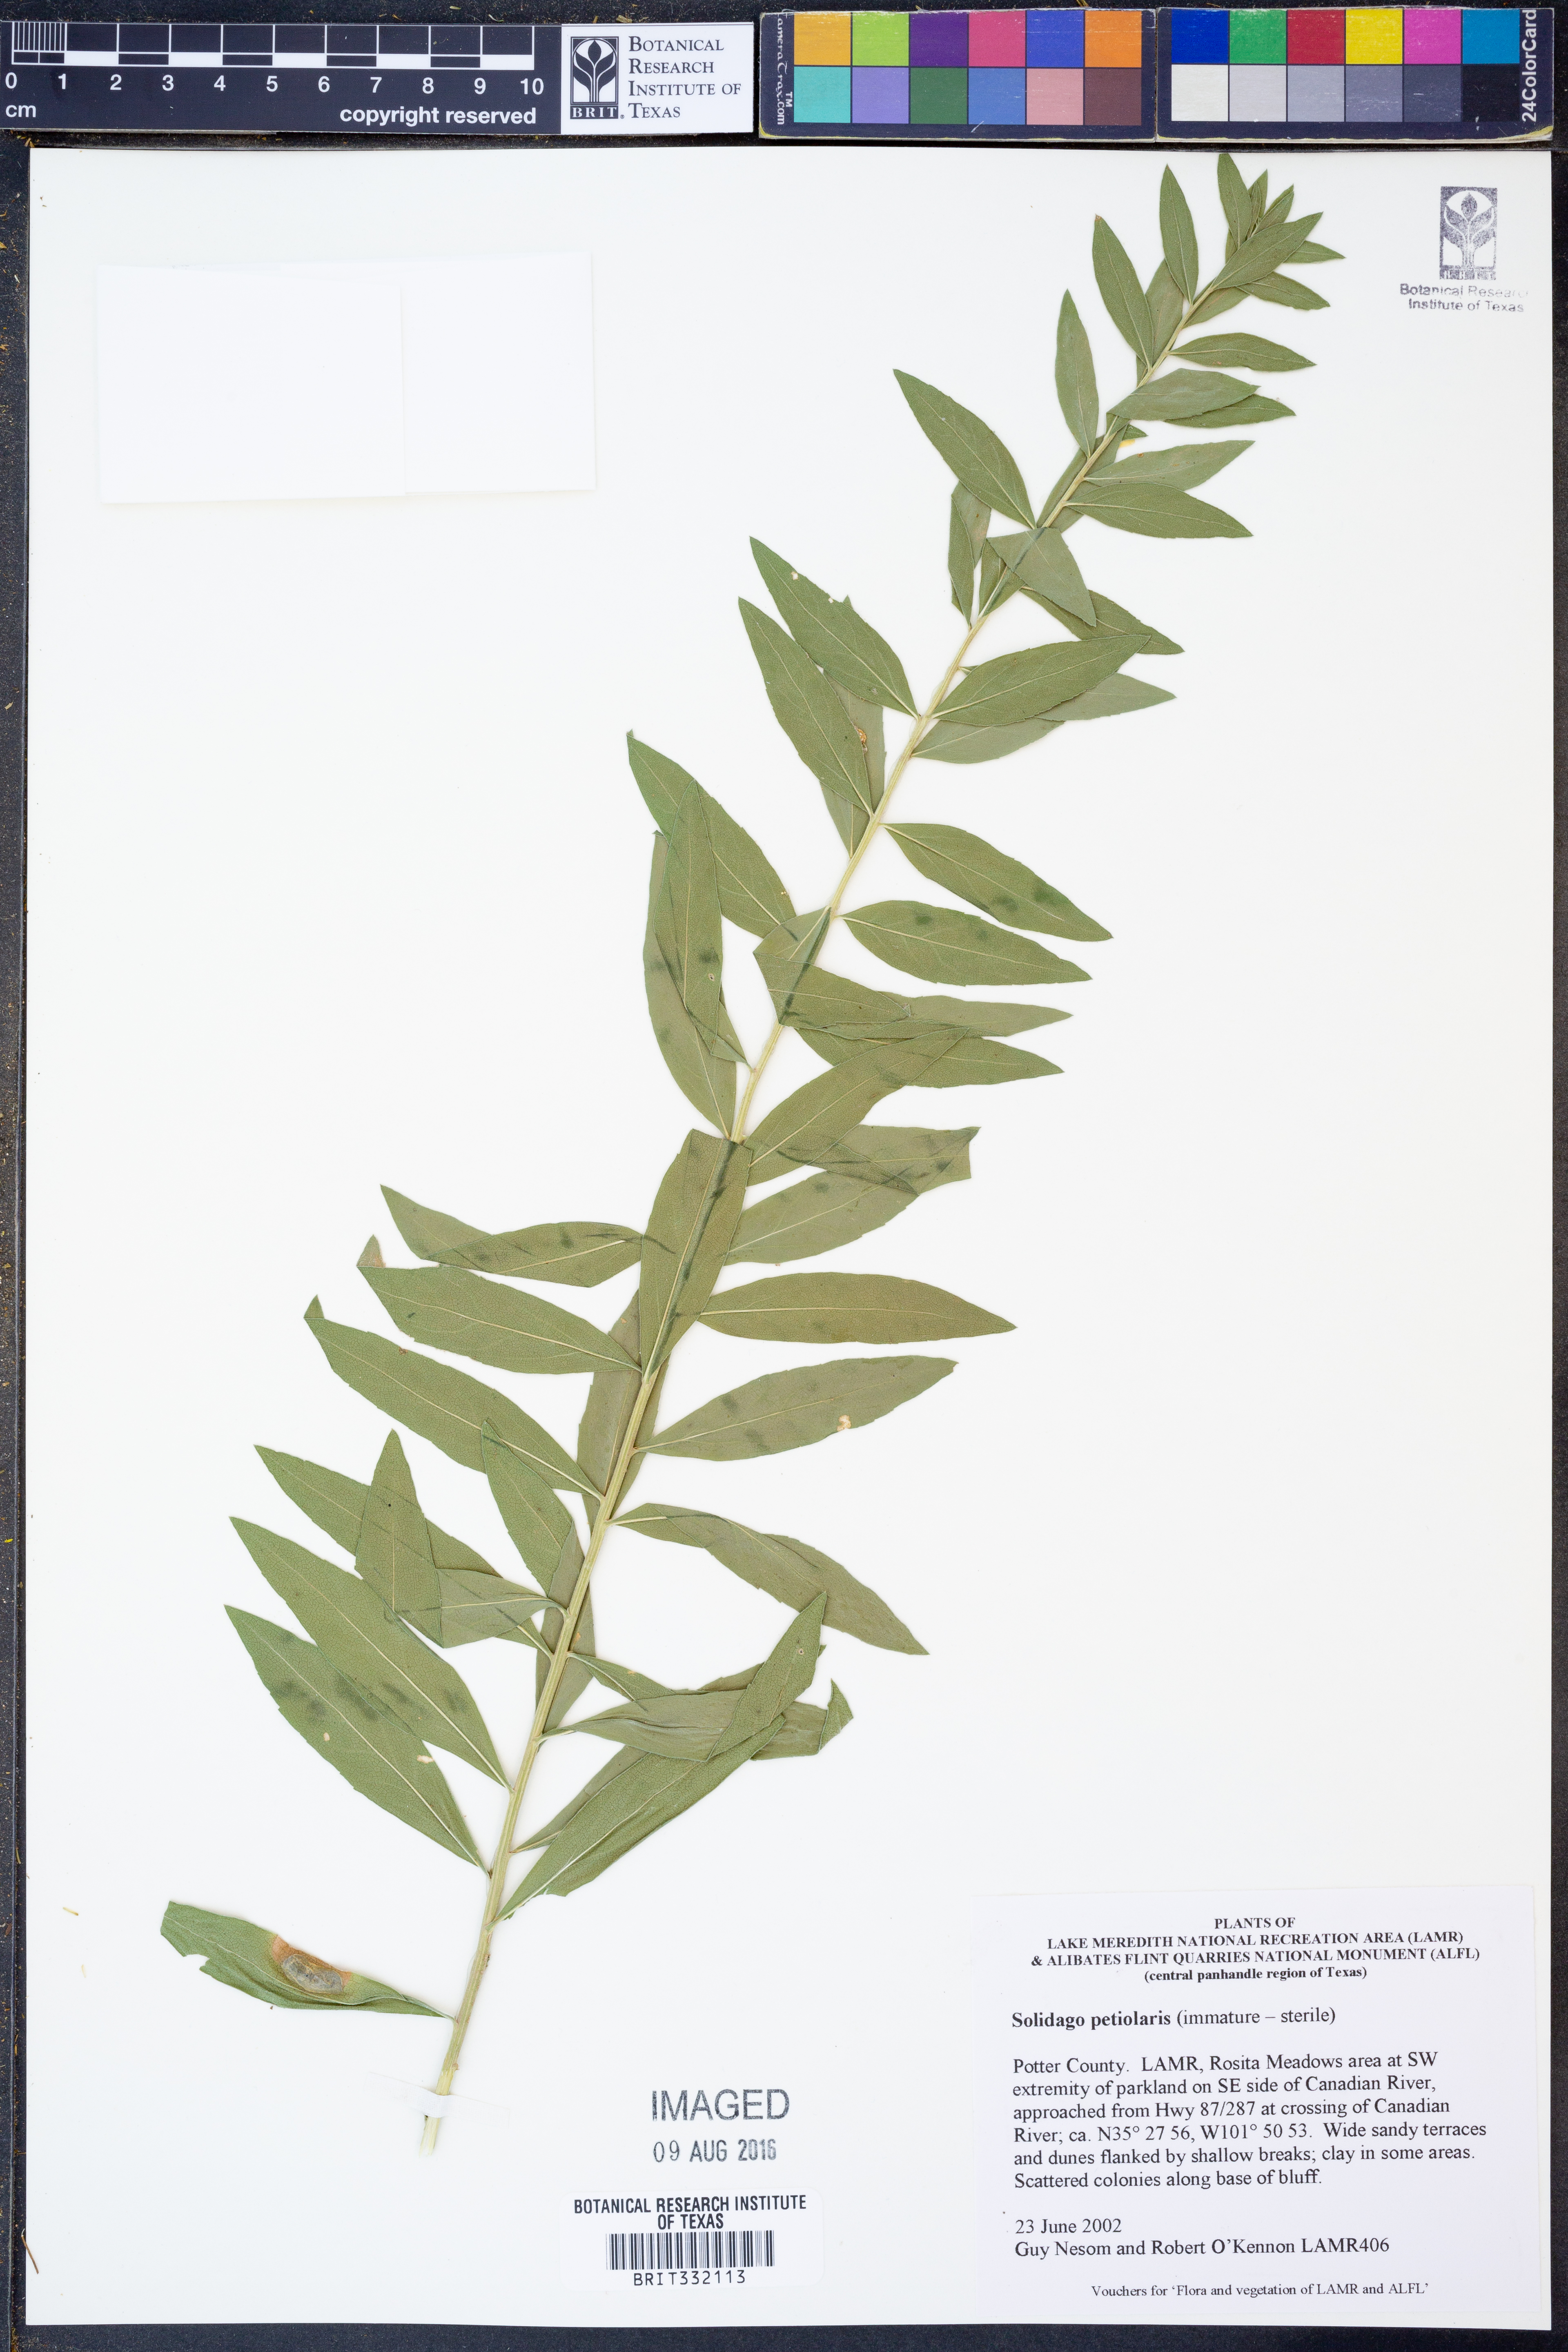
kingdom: Plantae
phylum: Tracheophyta
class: Magnoliopsida
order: Asterales
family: Asteraceae
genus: Solidago
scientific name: Solidago petiolaris
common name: Downy ragged goldenrod
